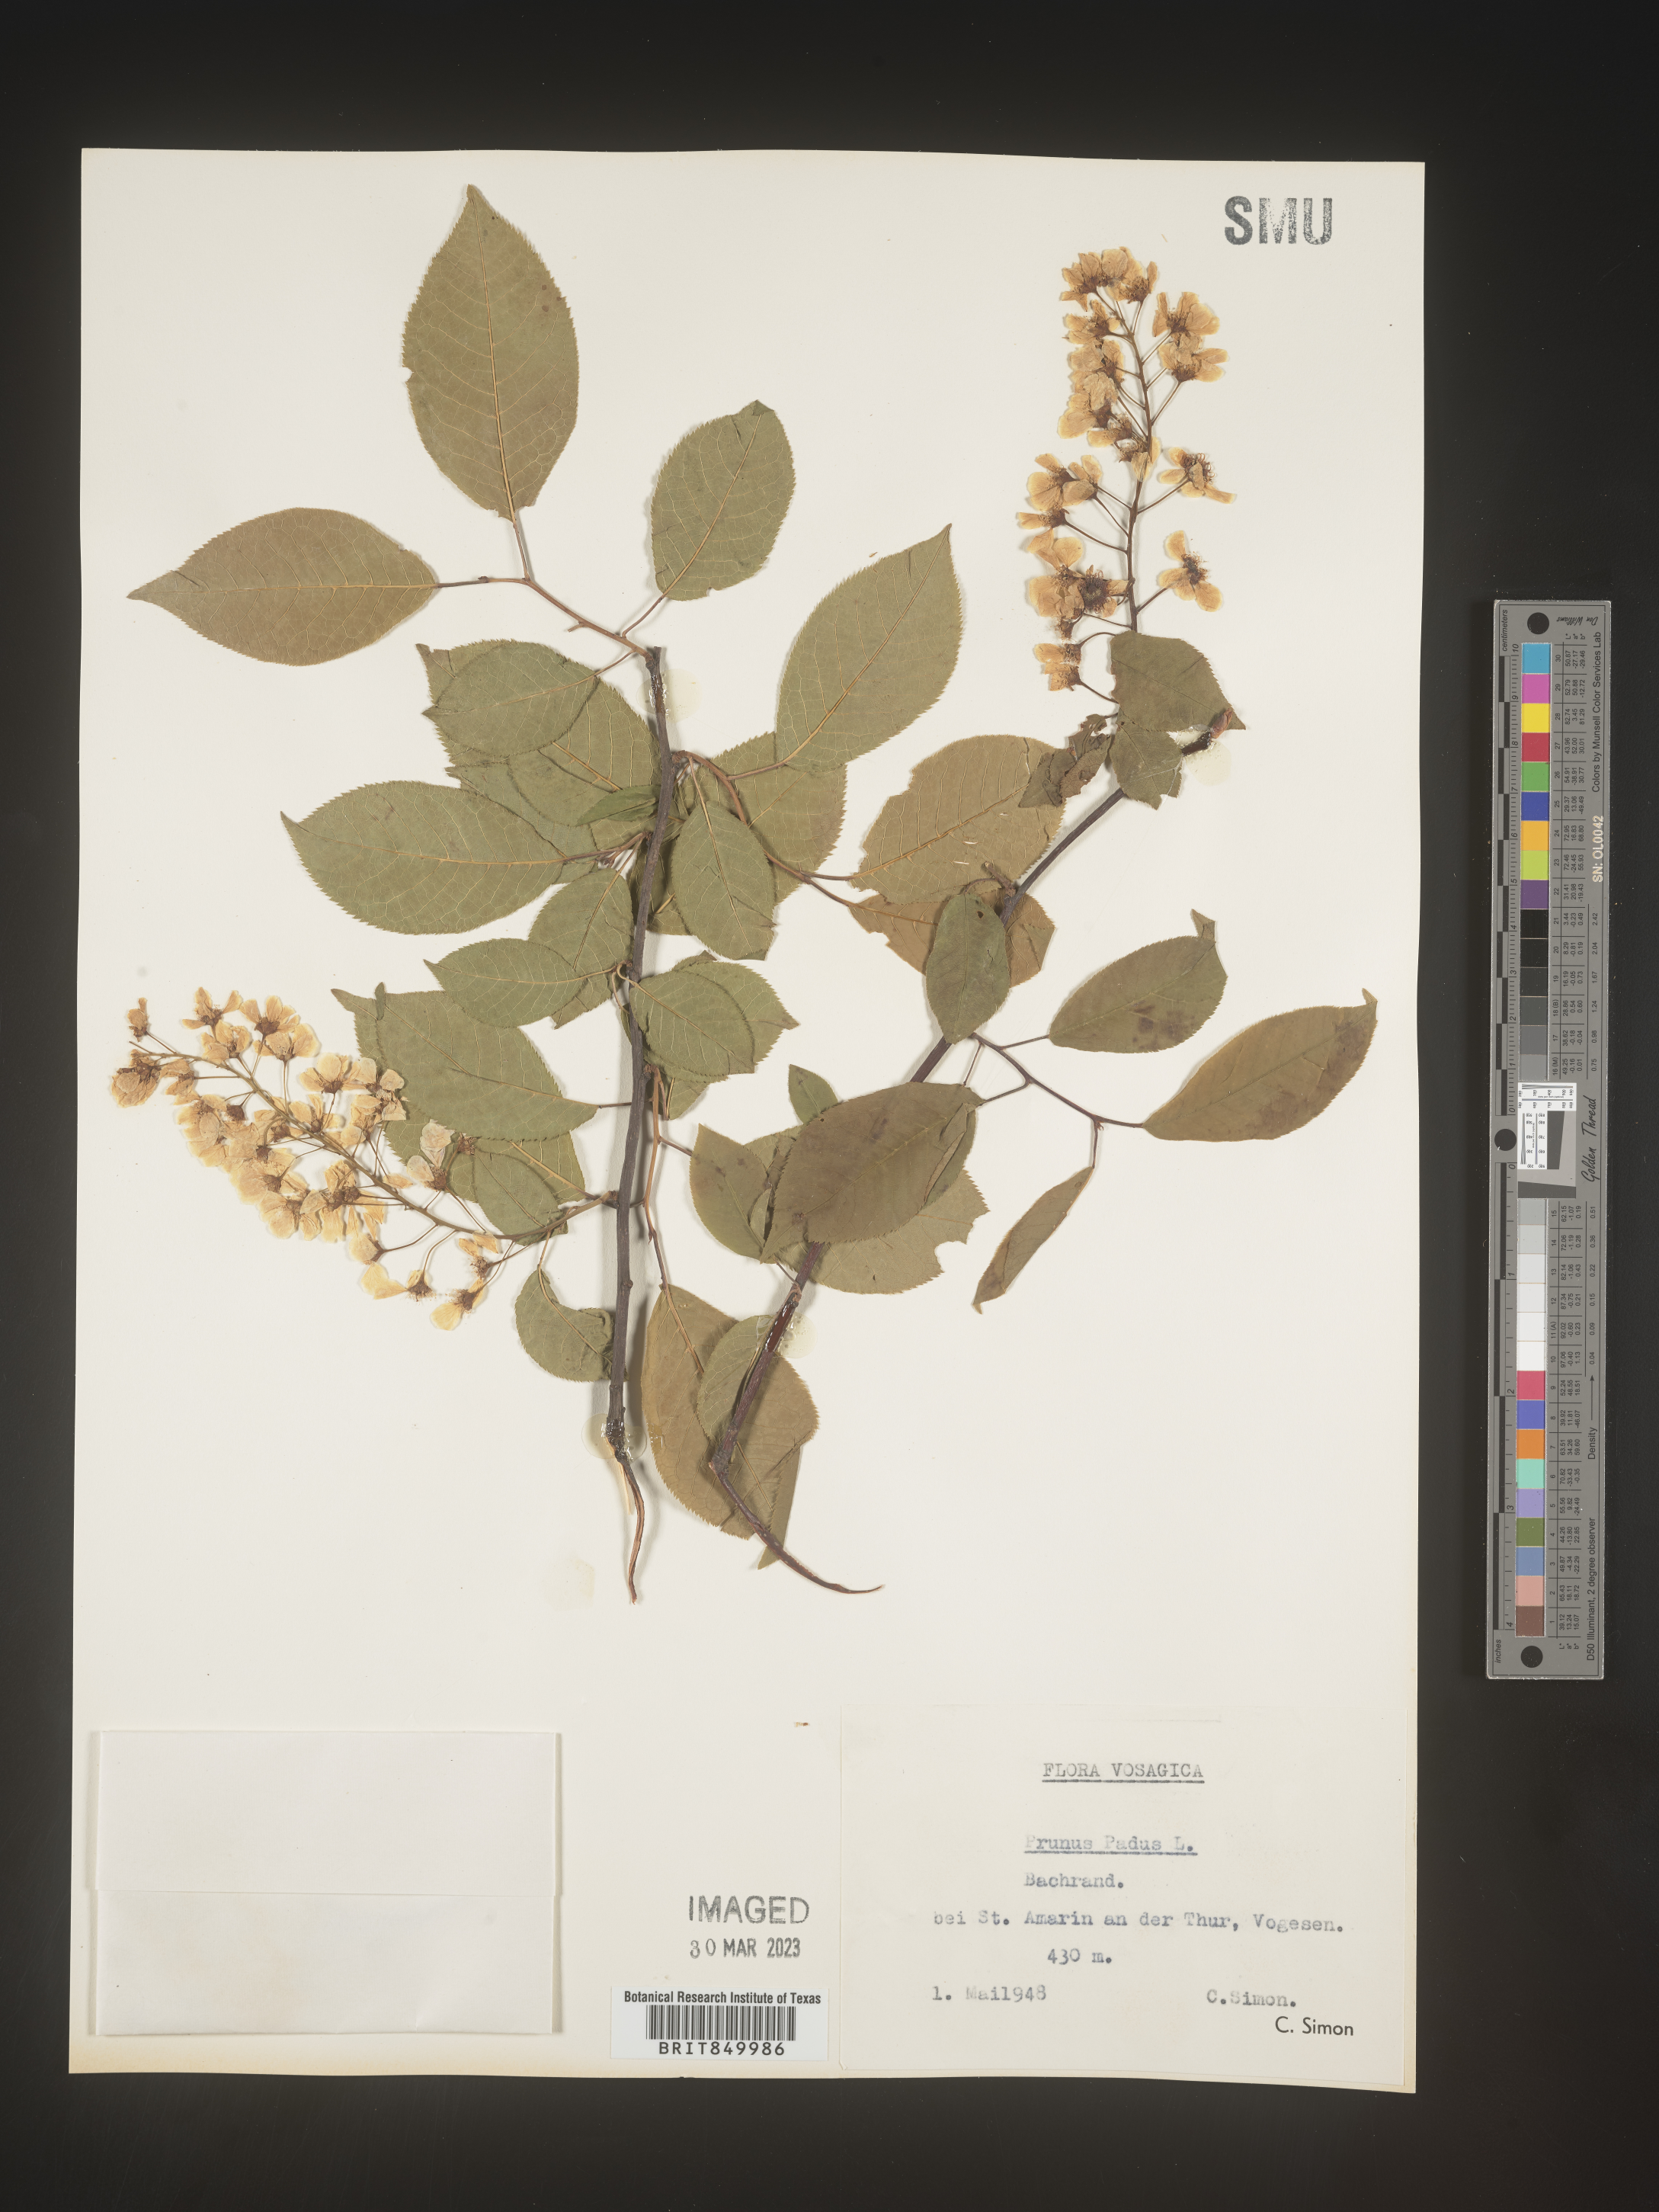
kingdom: Plantae
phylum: Tracheophyta
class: Magnoliopsida
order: Rosales
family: Rosaceae
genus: Prunus
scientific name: Prunus
